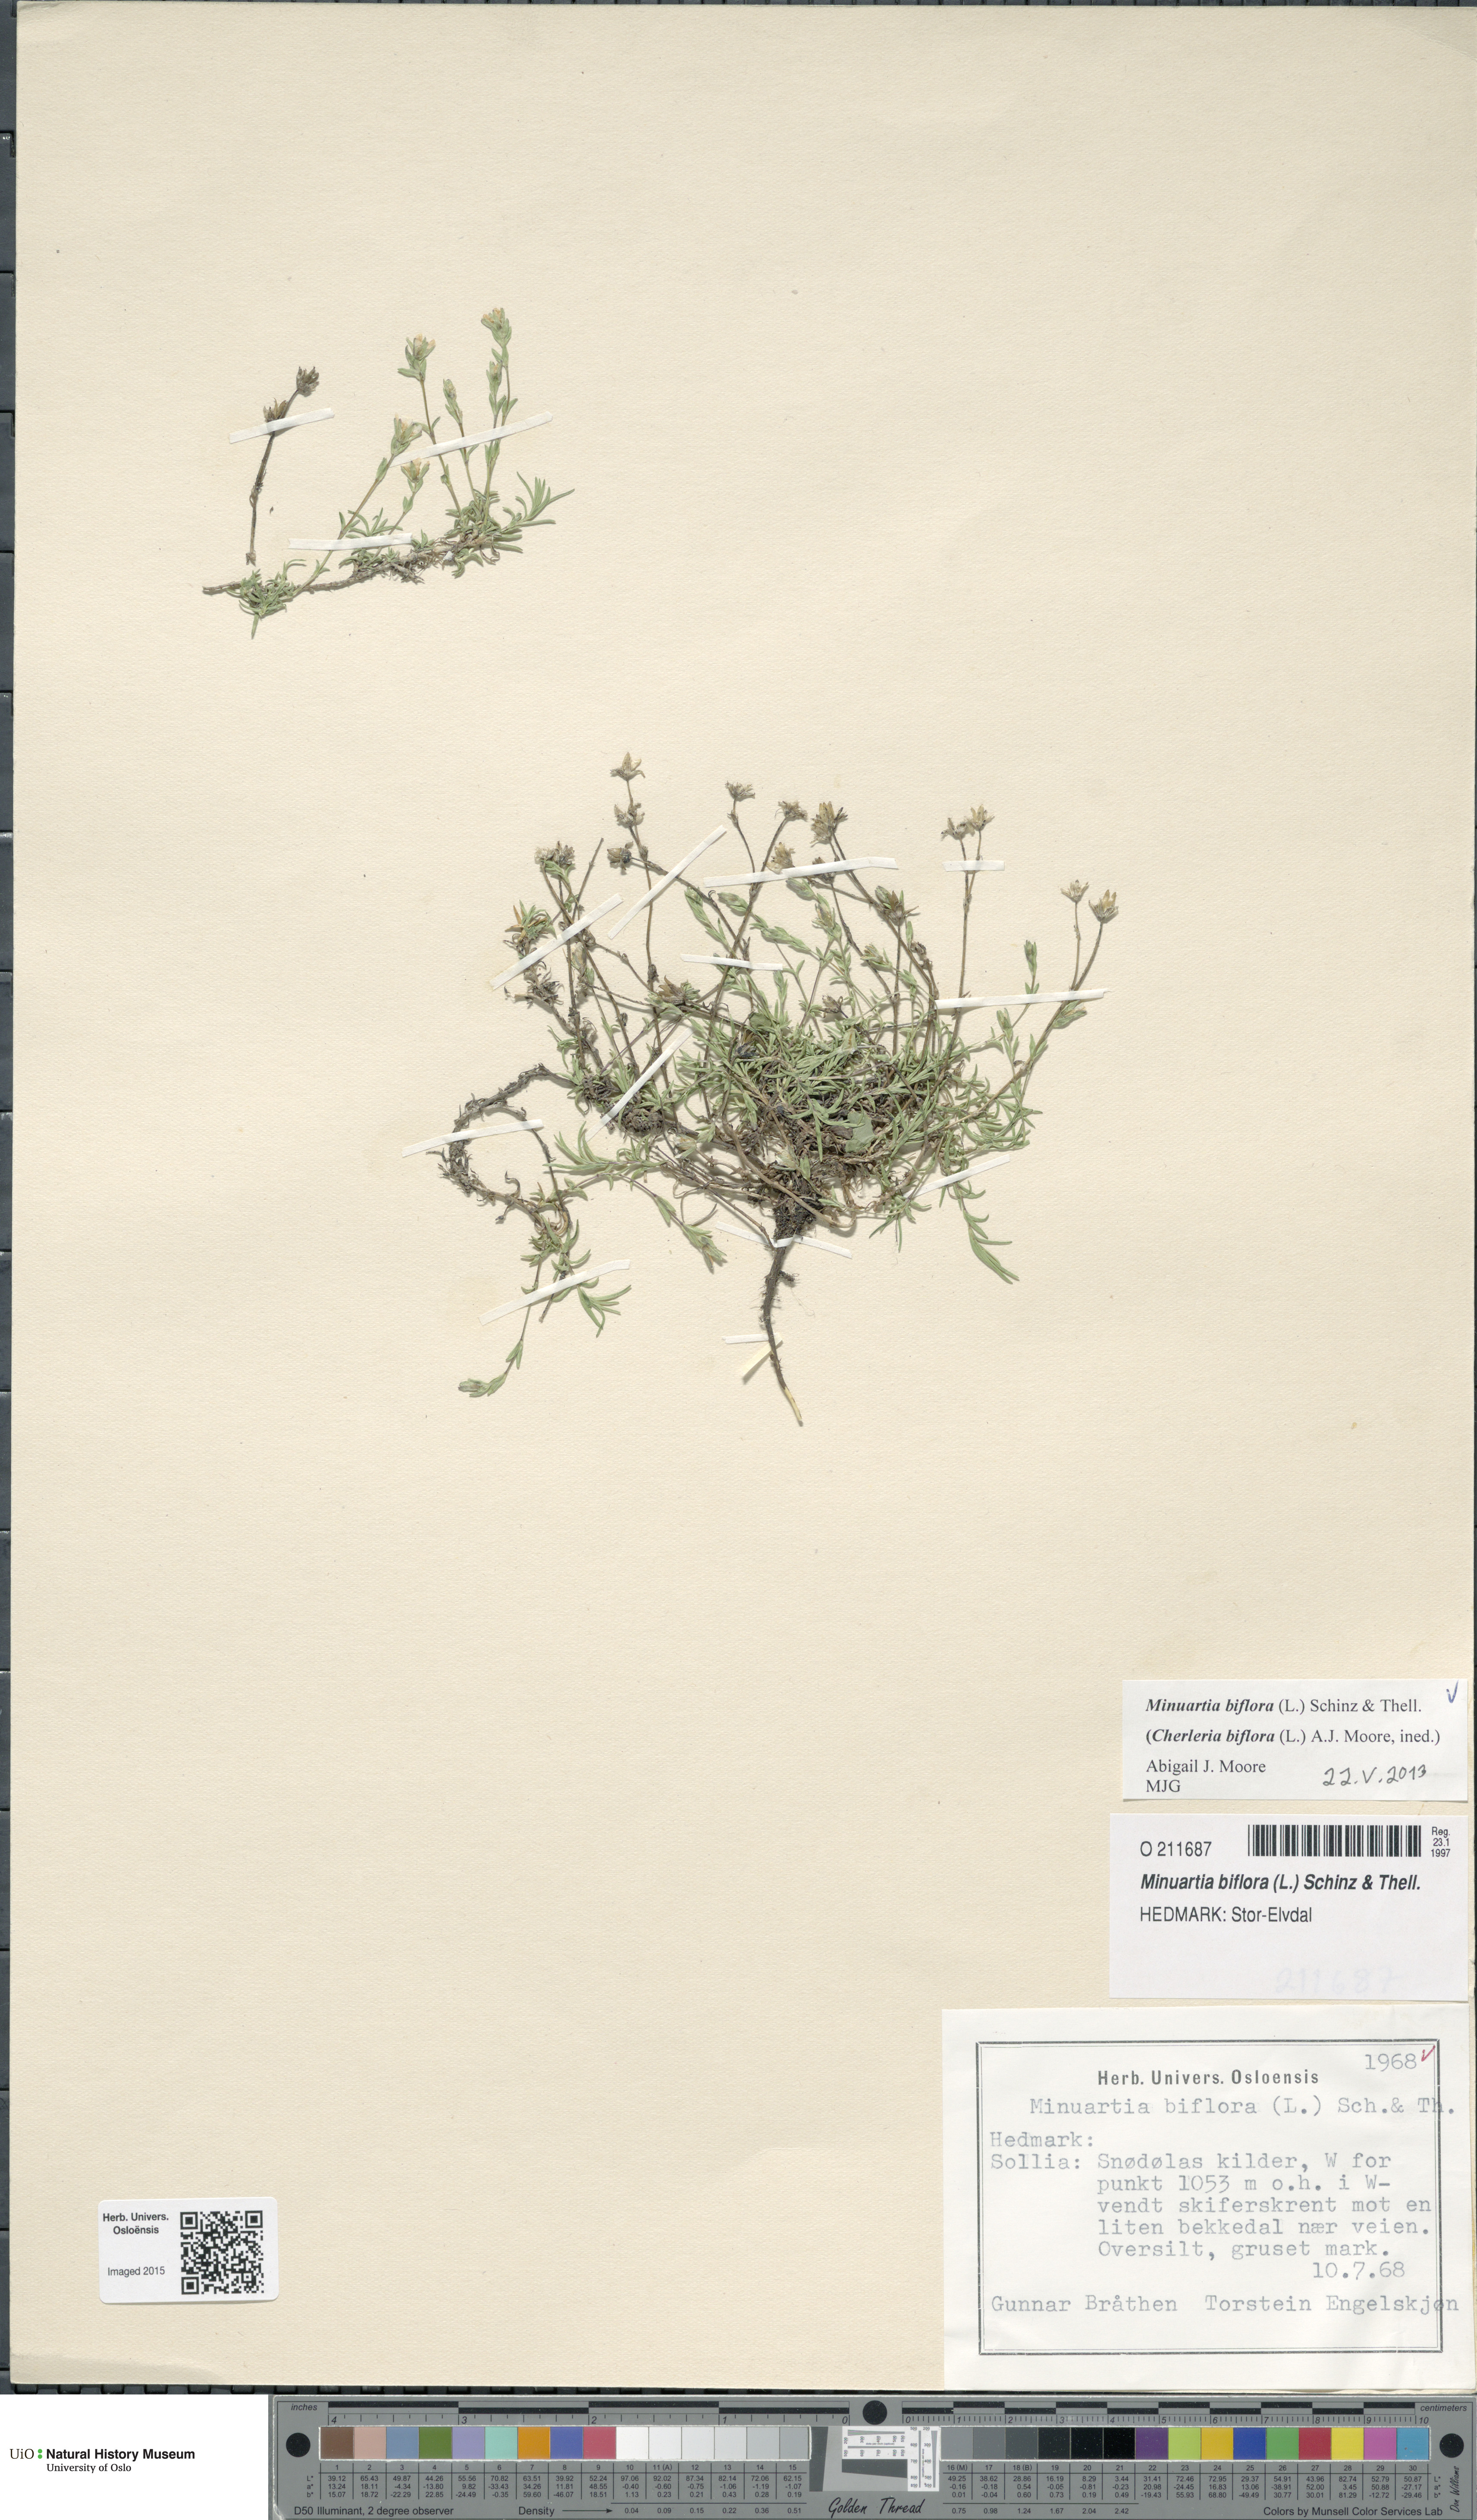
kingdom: Plantae
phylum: Tracheophyta
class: Magnoliopsida
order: Caryophyllales
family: Caryophyllaceae
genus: Cherleria
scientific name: Cherleria biflora
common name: Mountain sandwort
